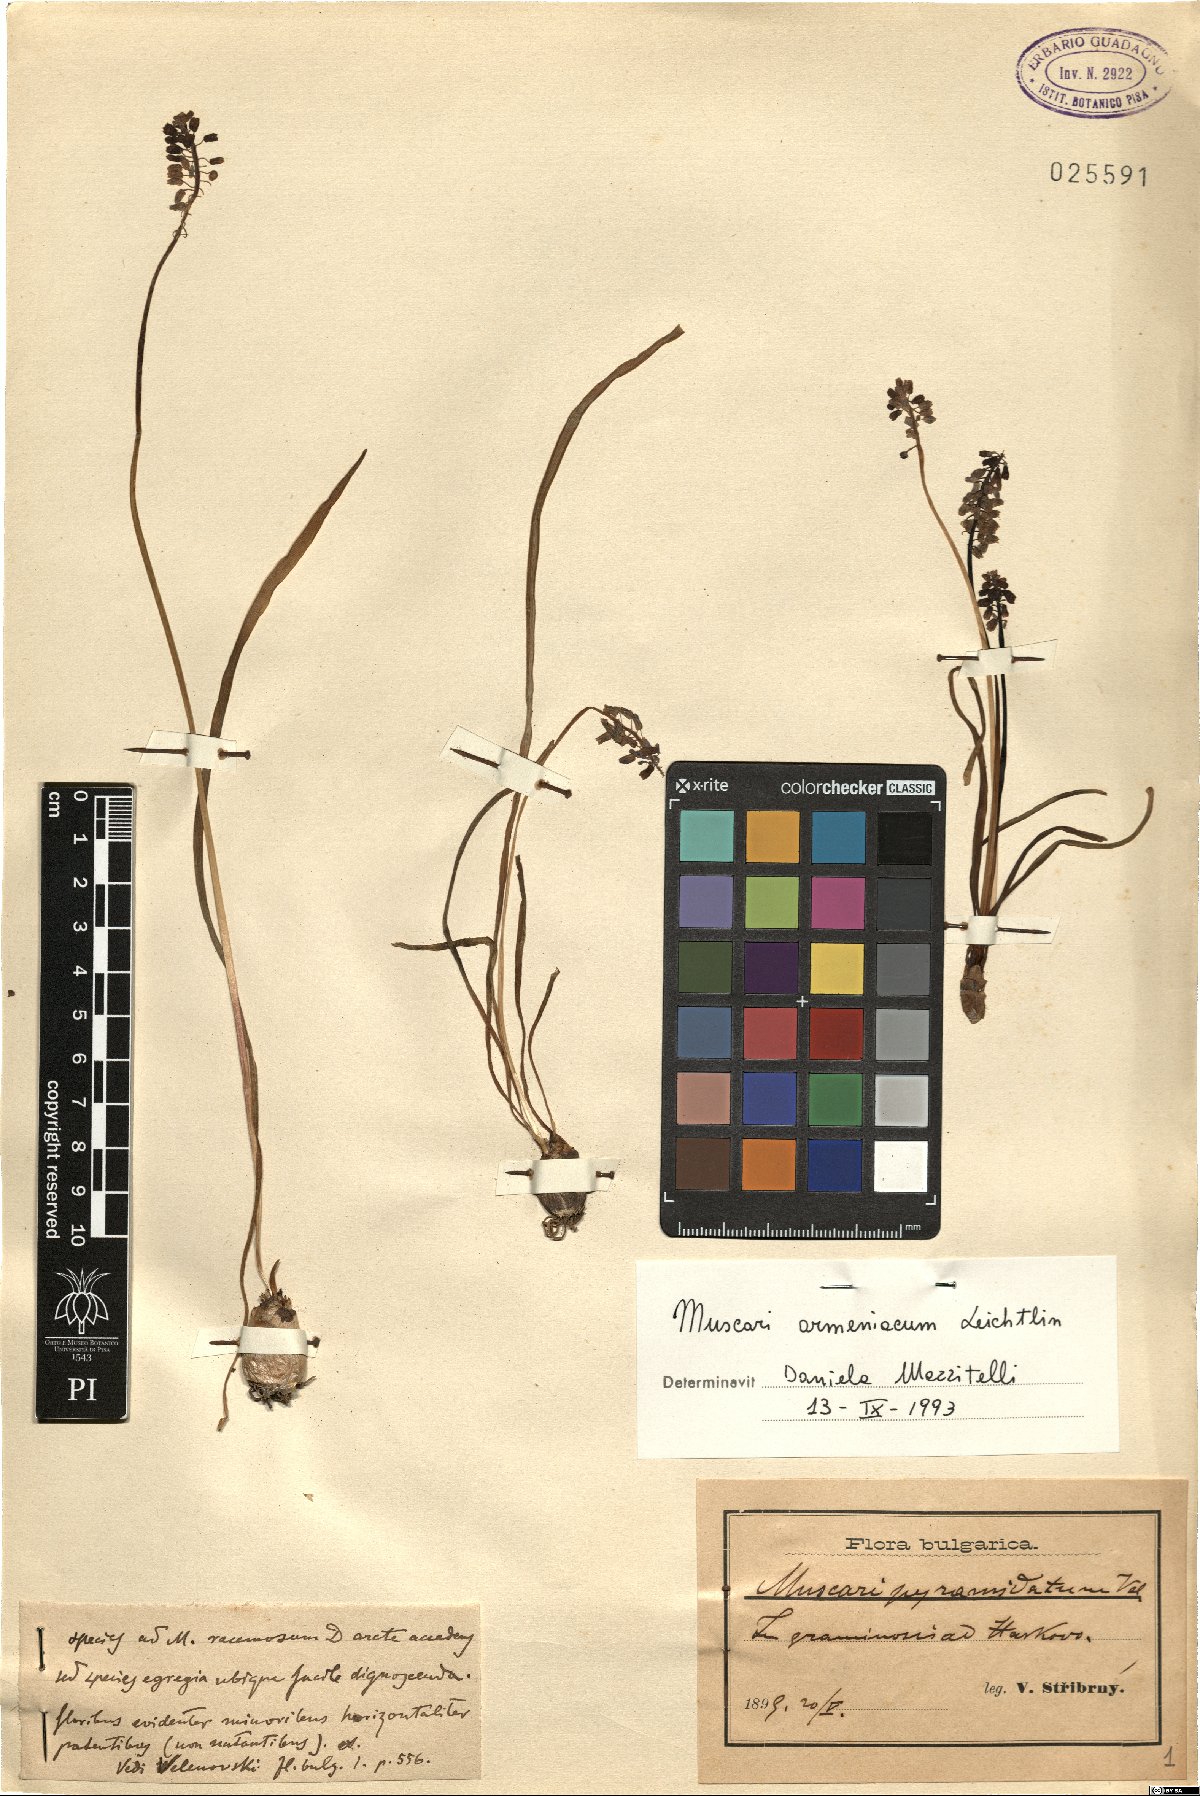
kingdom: Plantae
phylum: Tracheophyta
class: Liliopsida
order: Asparagales
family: Asparagaceae
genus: Muscari
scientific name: Muscari armeniacum
